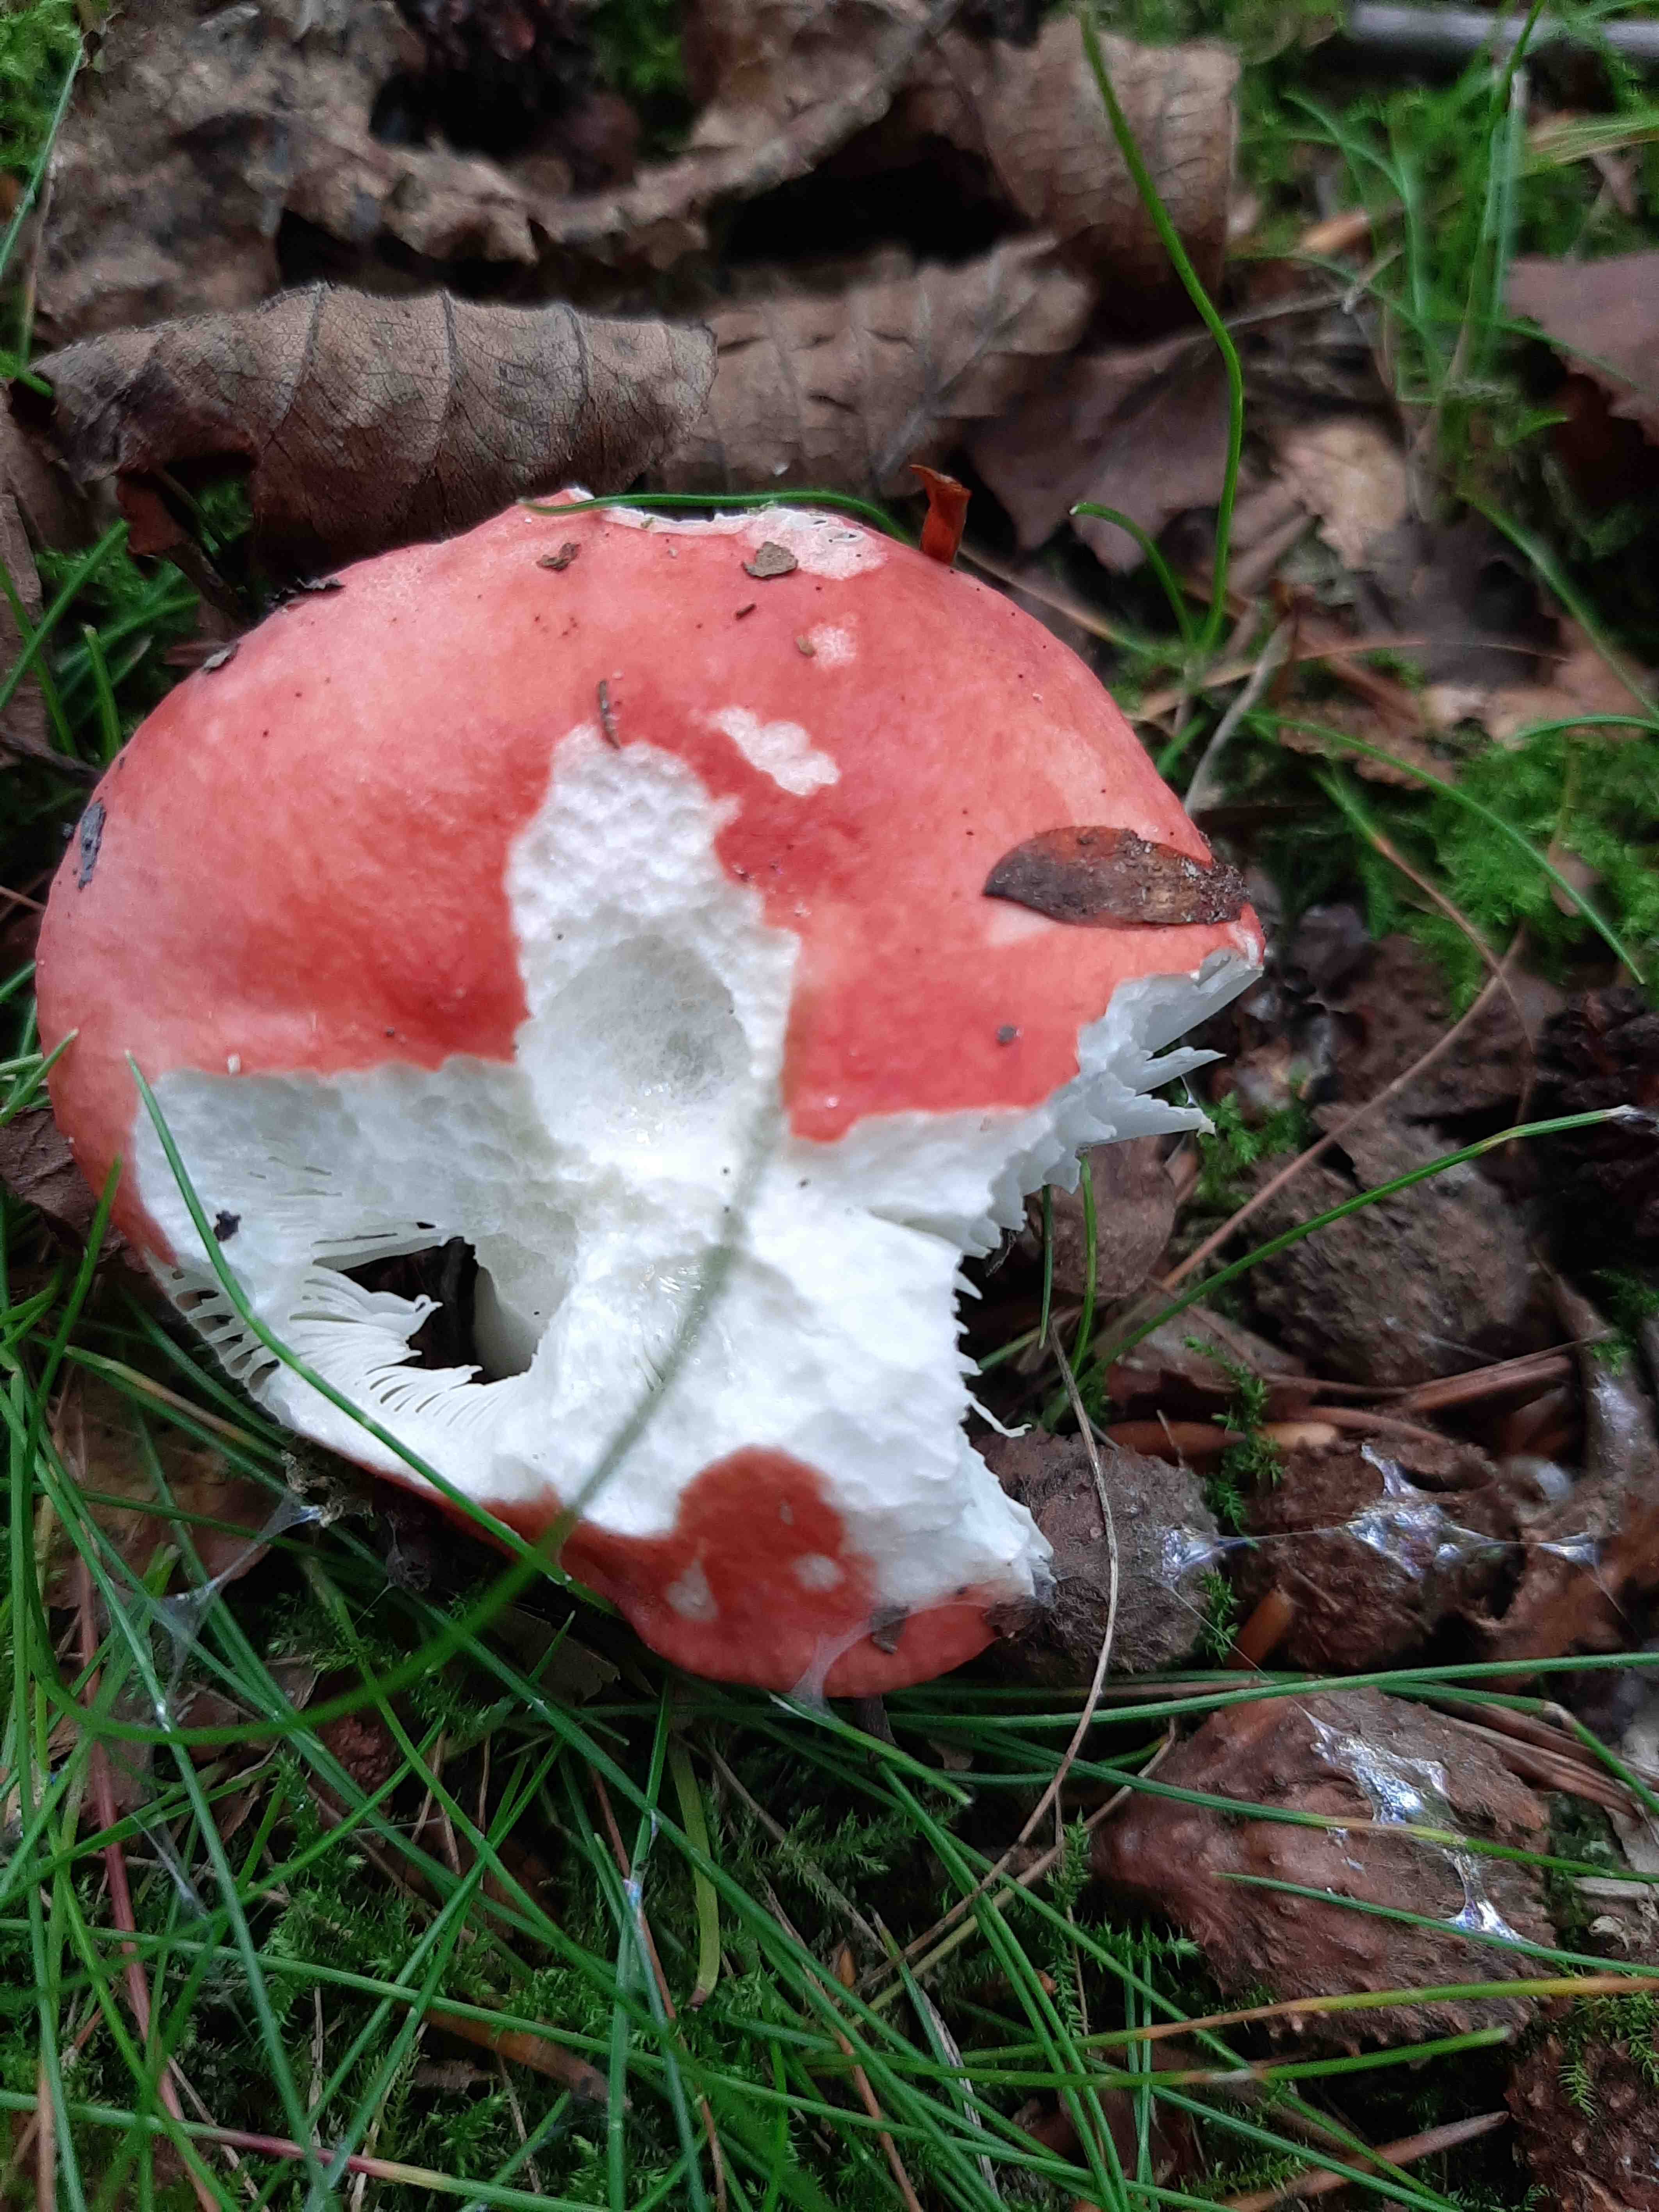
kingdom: Fungi
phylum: Basidiomycota
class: Agaricomycetes
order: Russulales
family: Russulaceae
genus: Russula
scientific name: Russula
